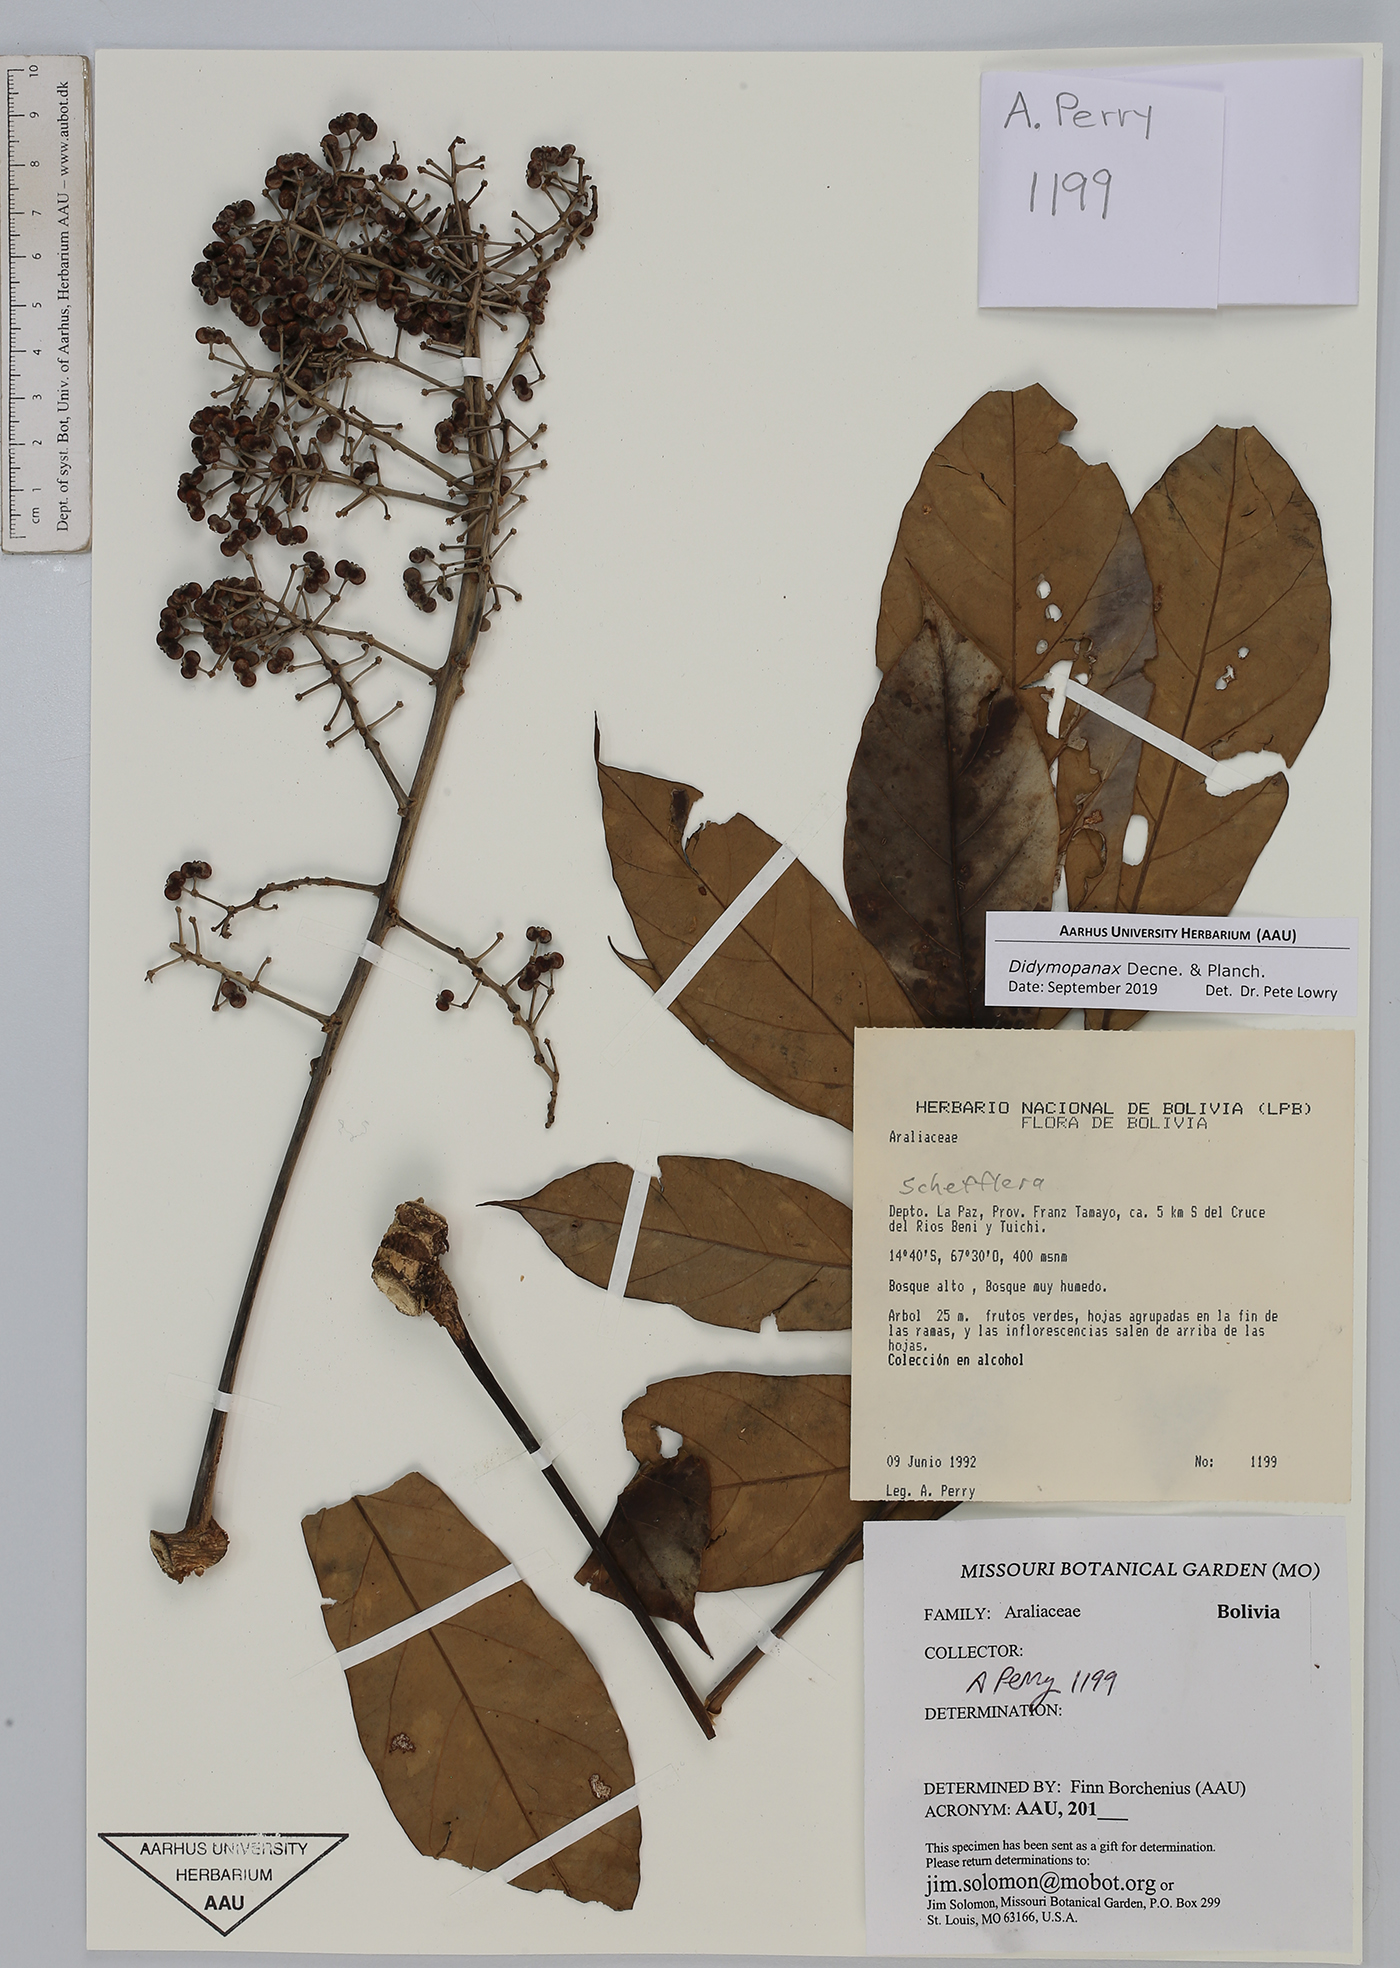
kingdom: Plantae
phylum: Tracheophyta
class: Magnoliopsida
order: Apiales
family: Araliaceae
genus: Didymopanax
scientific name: Didymopanax
